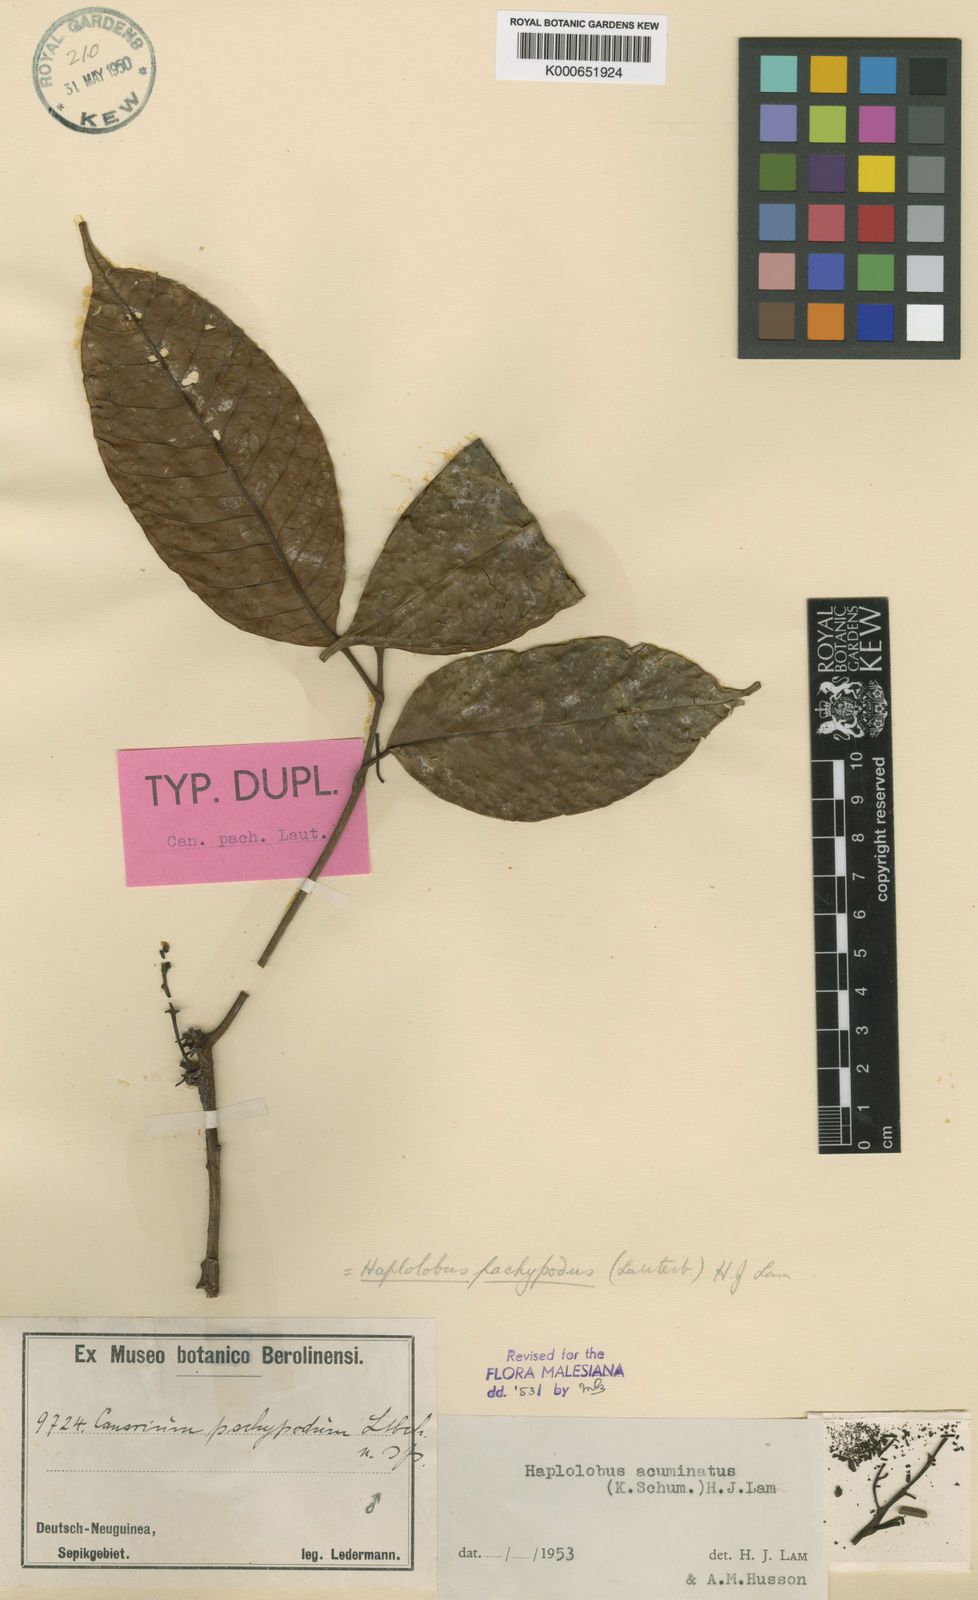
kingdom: Plantae
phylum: Tracheophyta
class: Magnoliopsida
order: Sapindales
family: Burseraceae
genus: Haplolobus
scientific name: Haplolobus acuminatus
